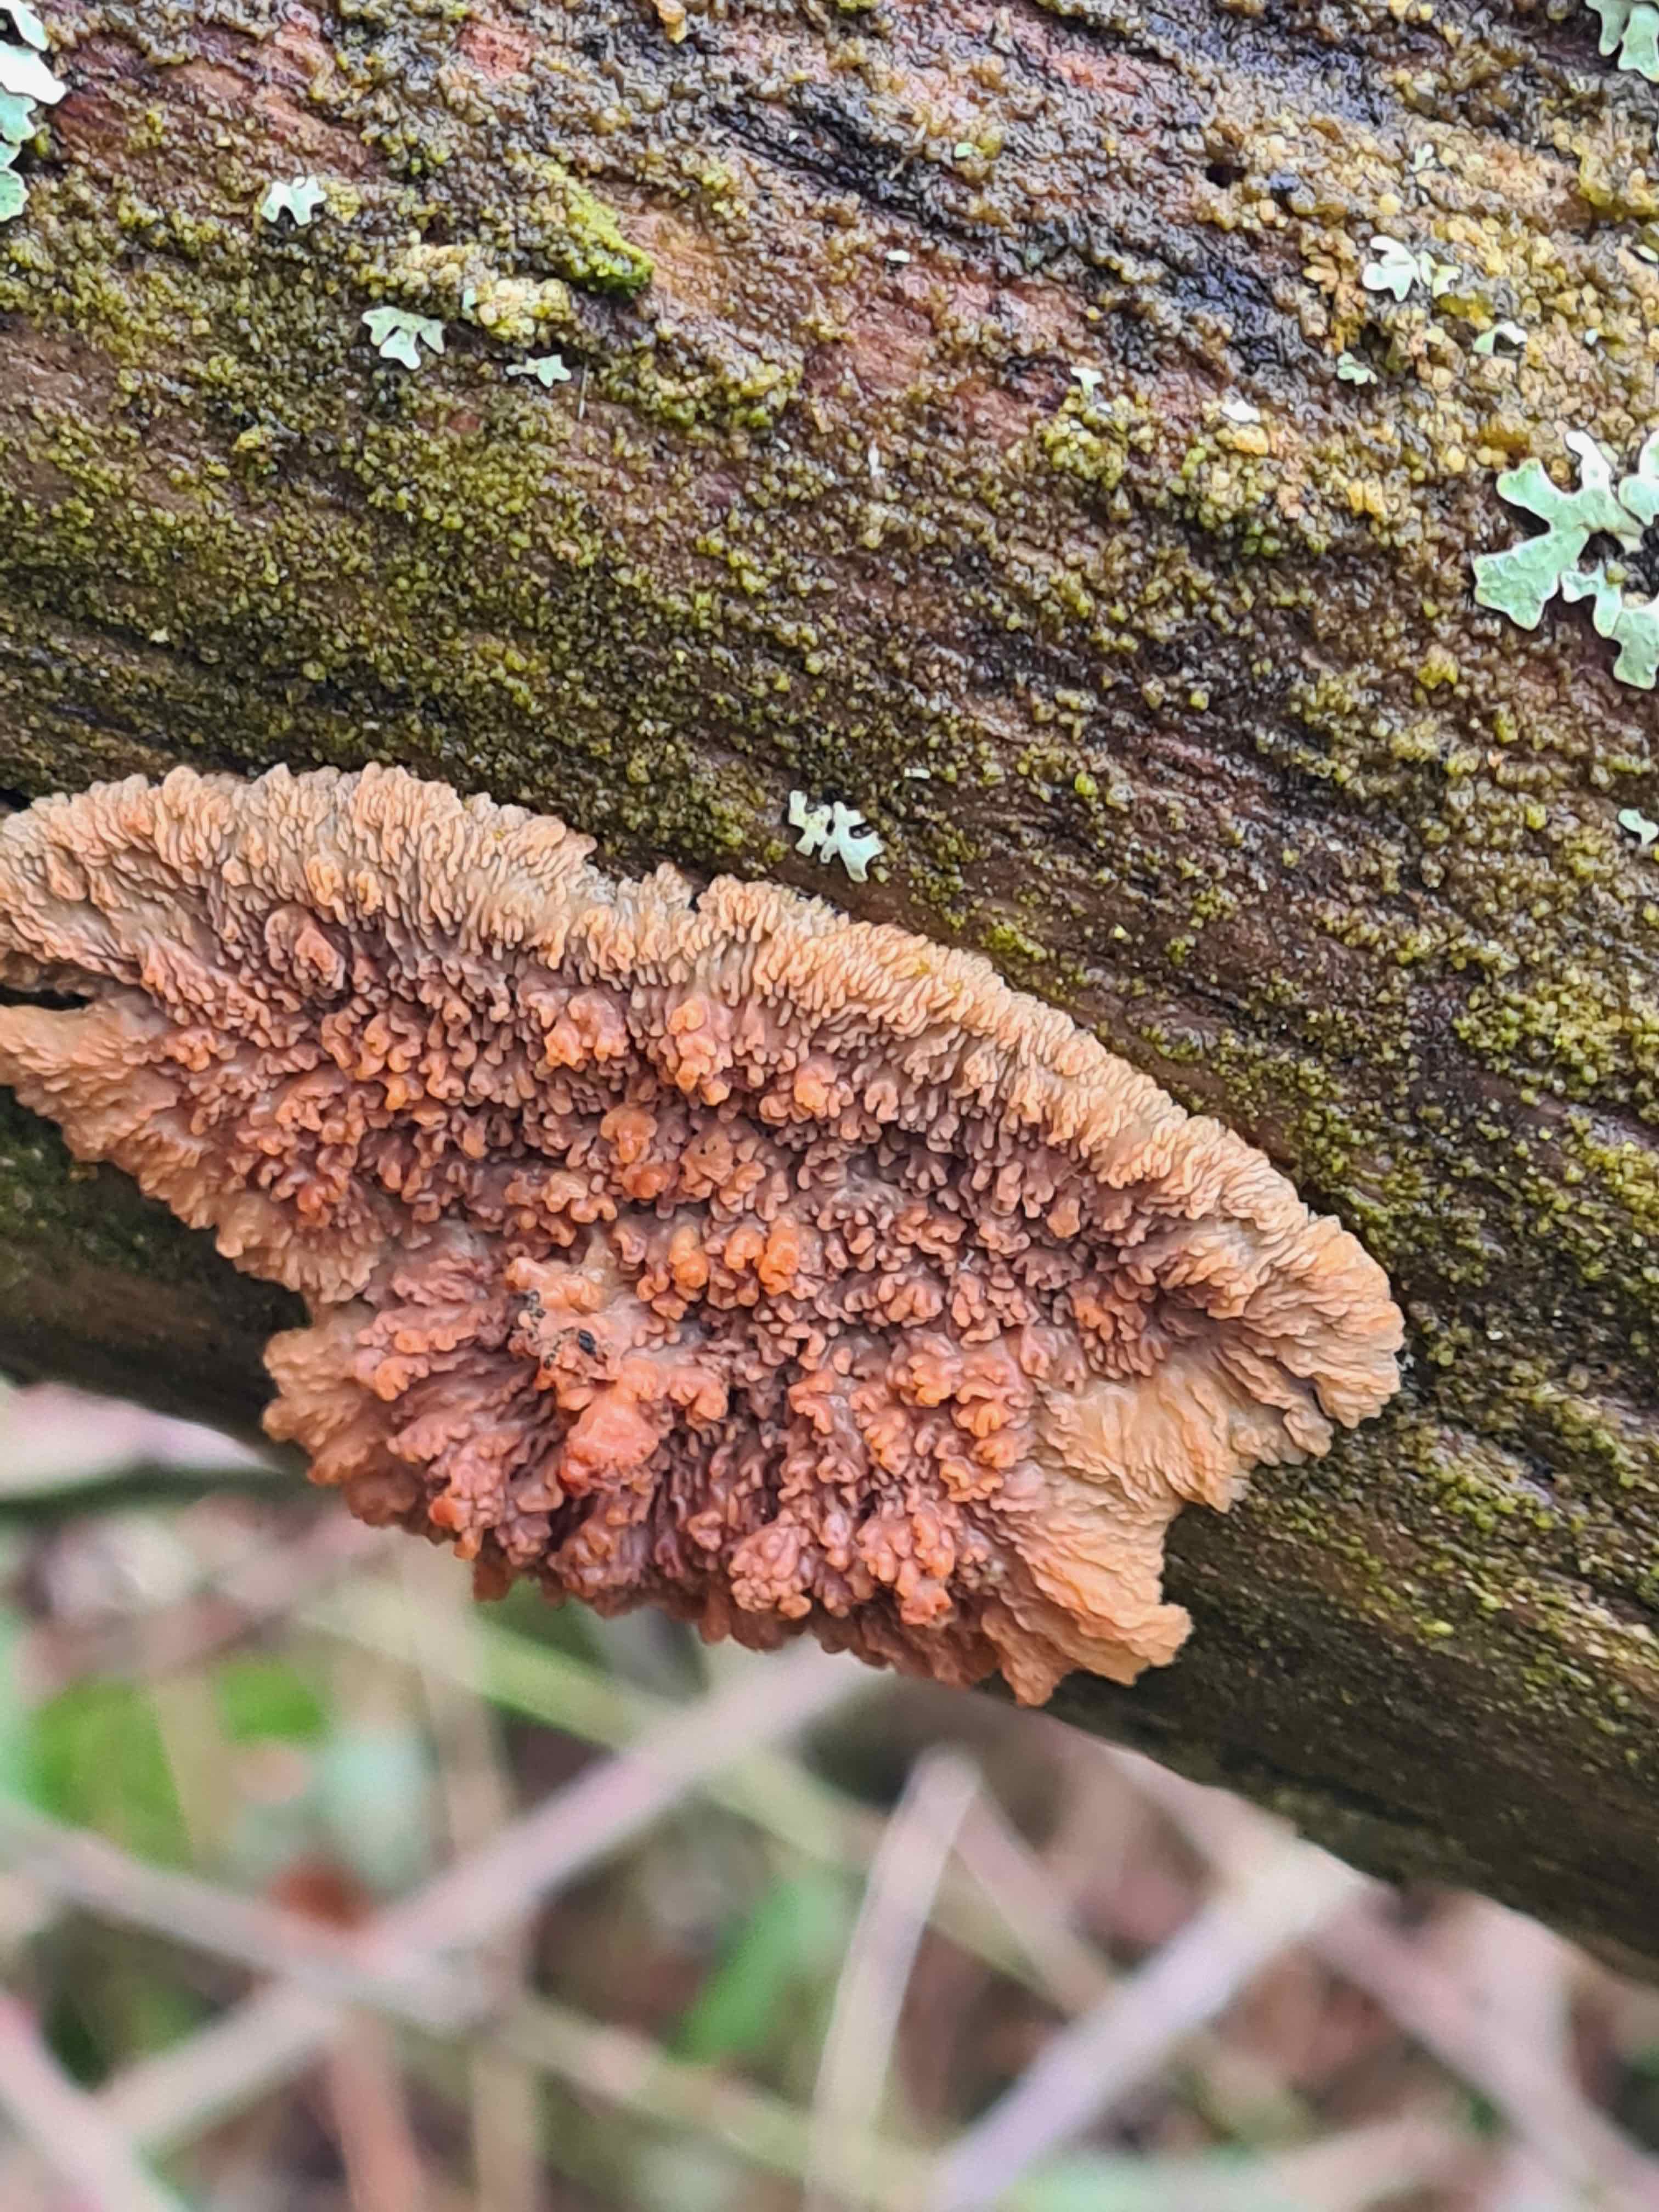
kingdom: Fungi
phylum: Basidiomycota
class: Agaricomycetes
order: Polyporales
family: Meruliaceae
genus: Phlebia
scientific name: Phlebia radiata
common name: stråle-åresvamp
